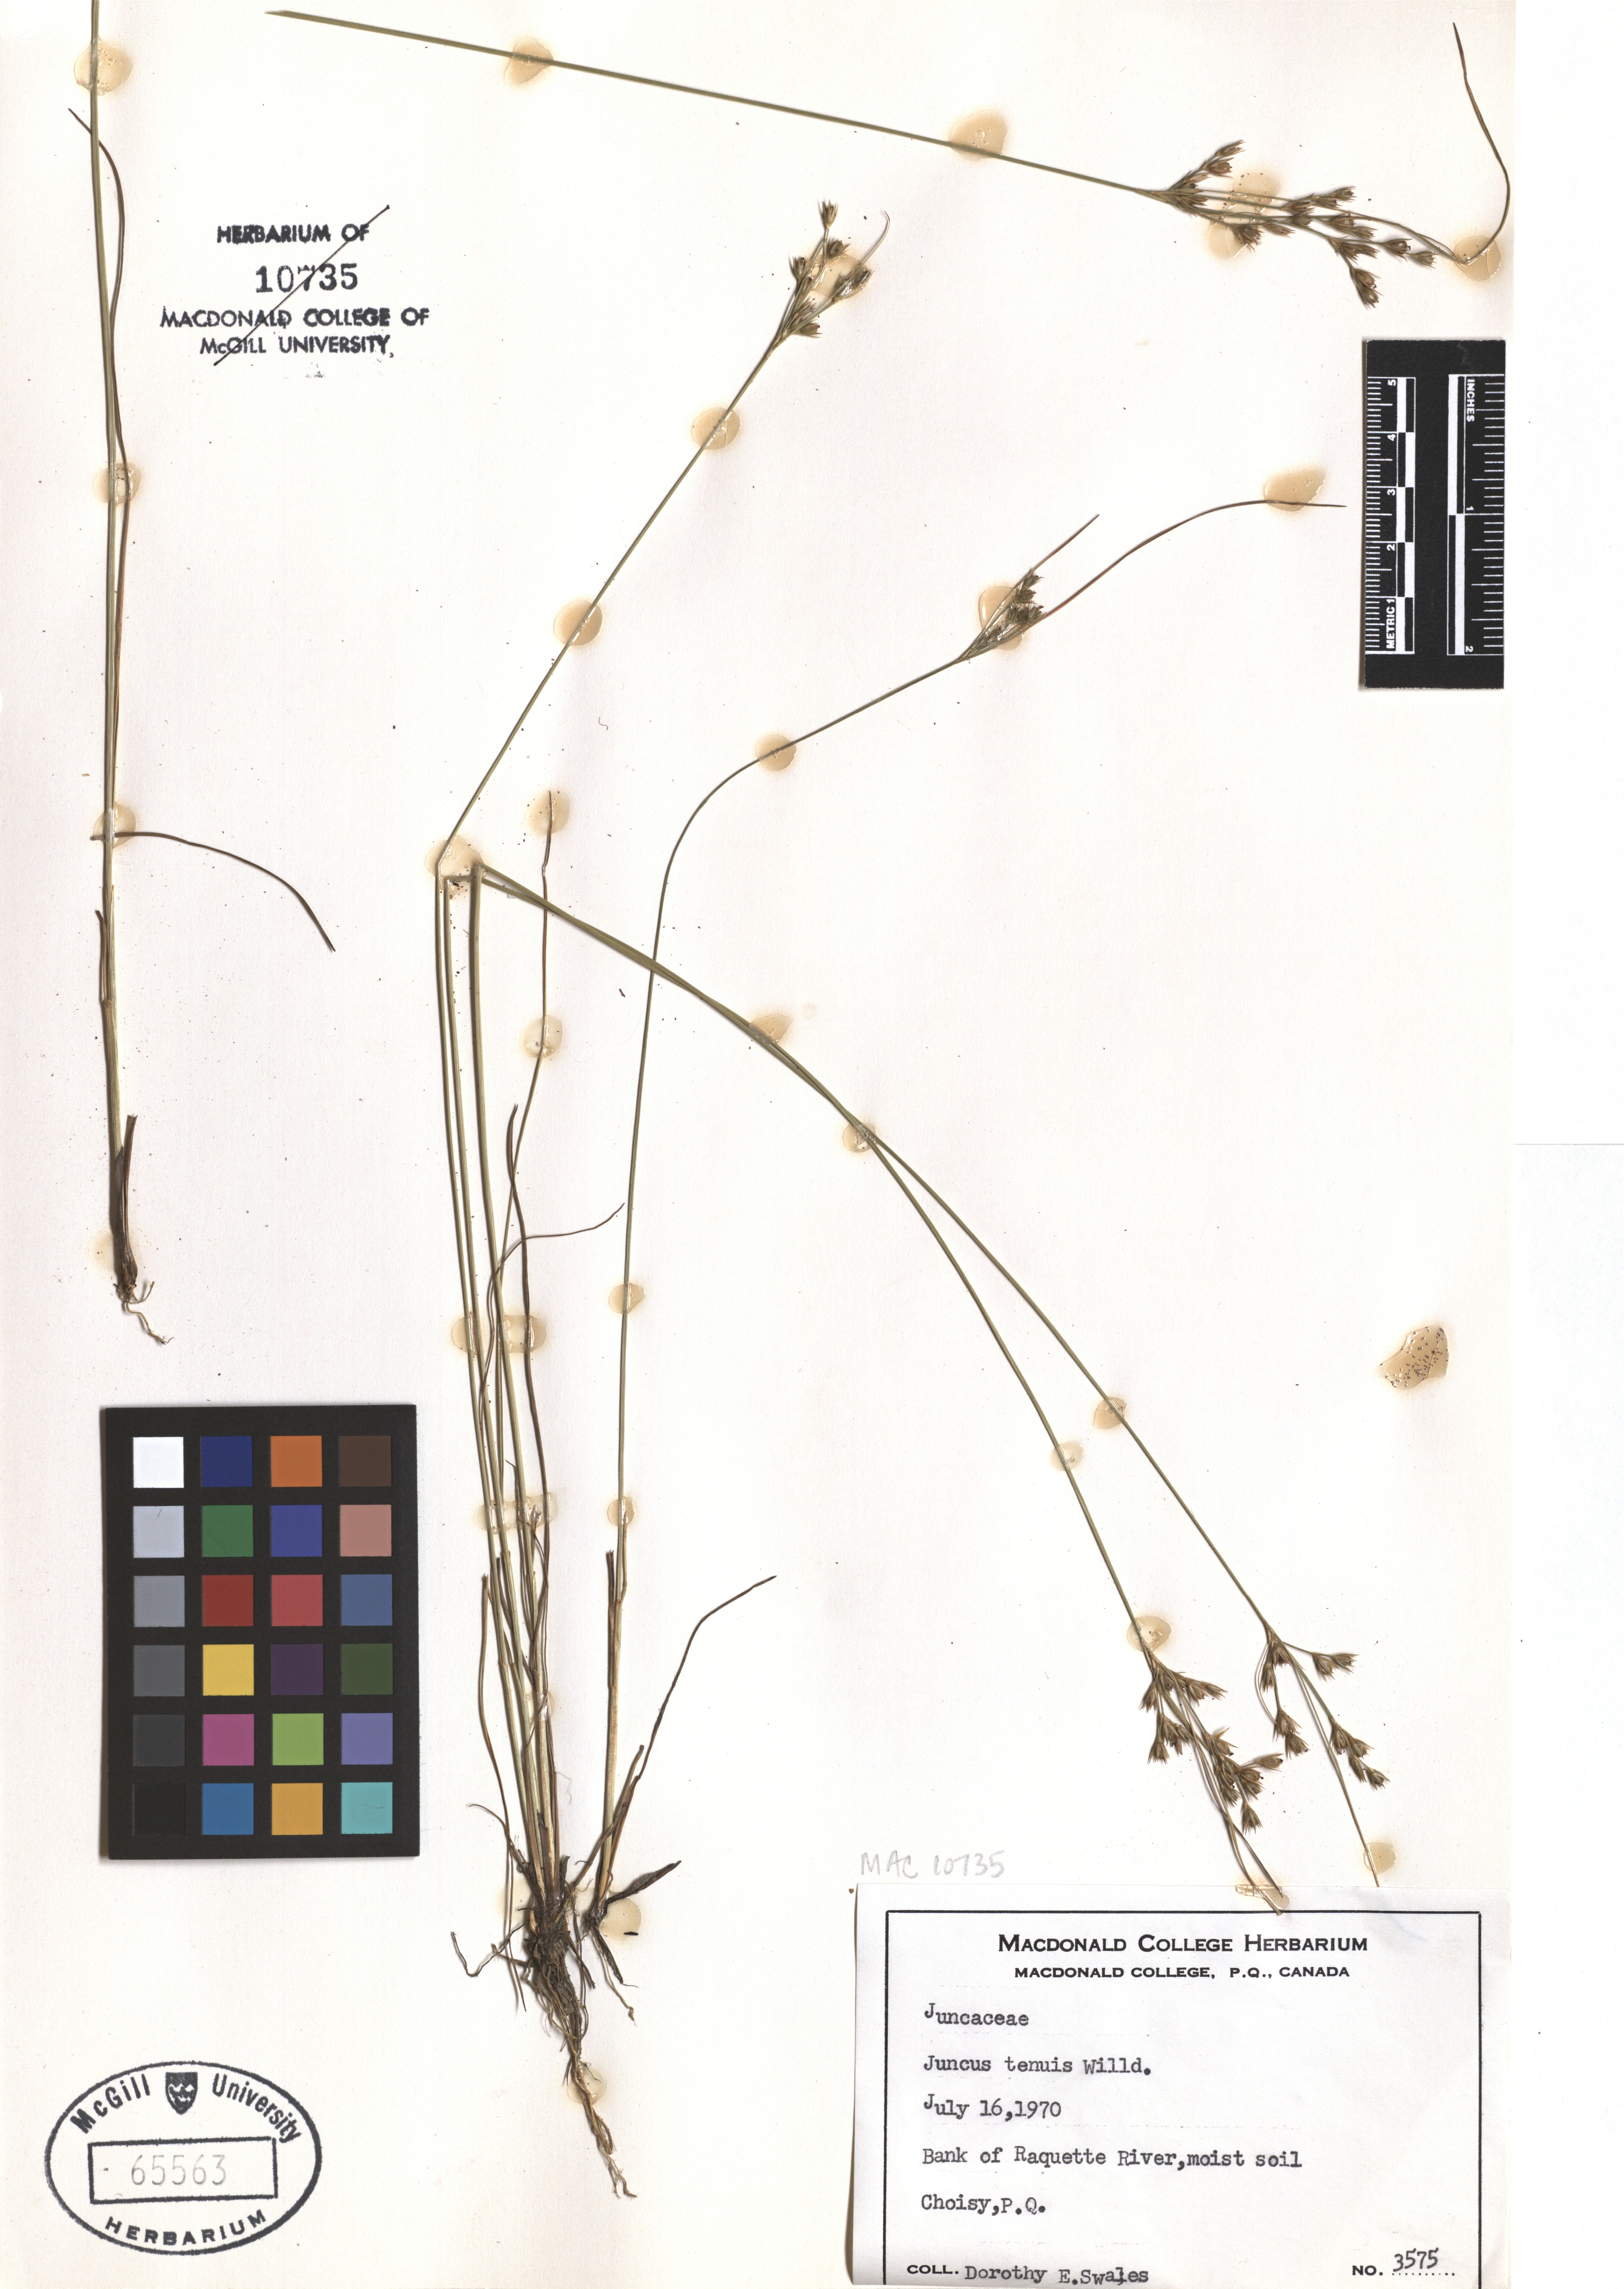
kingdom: Plantae
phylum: Tracheophyta
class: Liliopsida
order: Poales
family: Juncaceae
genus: Juncus
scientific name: Juncus tenuis
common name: Slender rush
